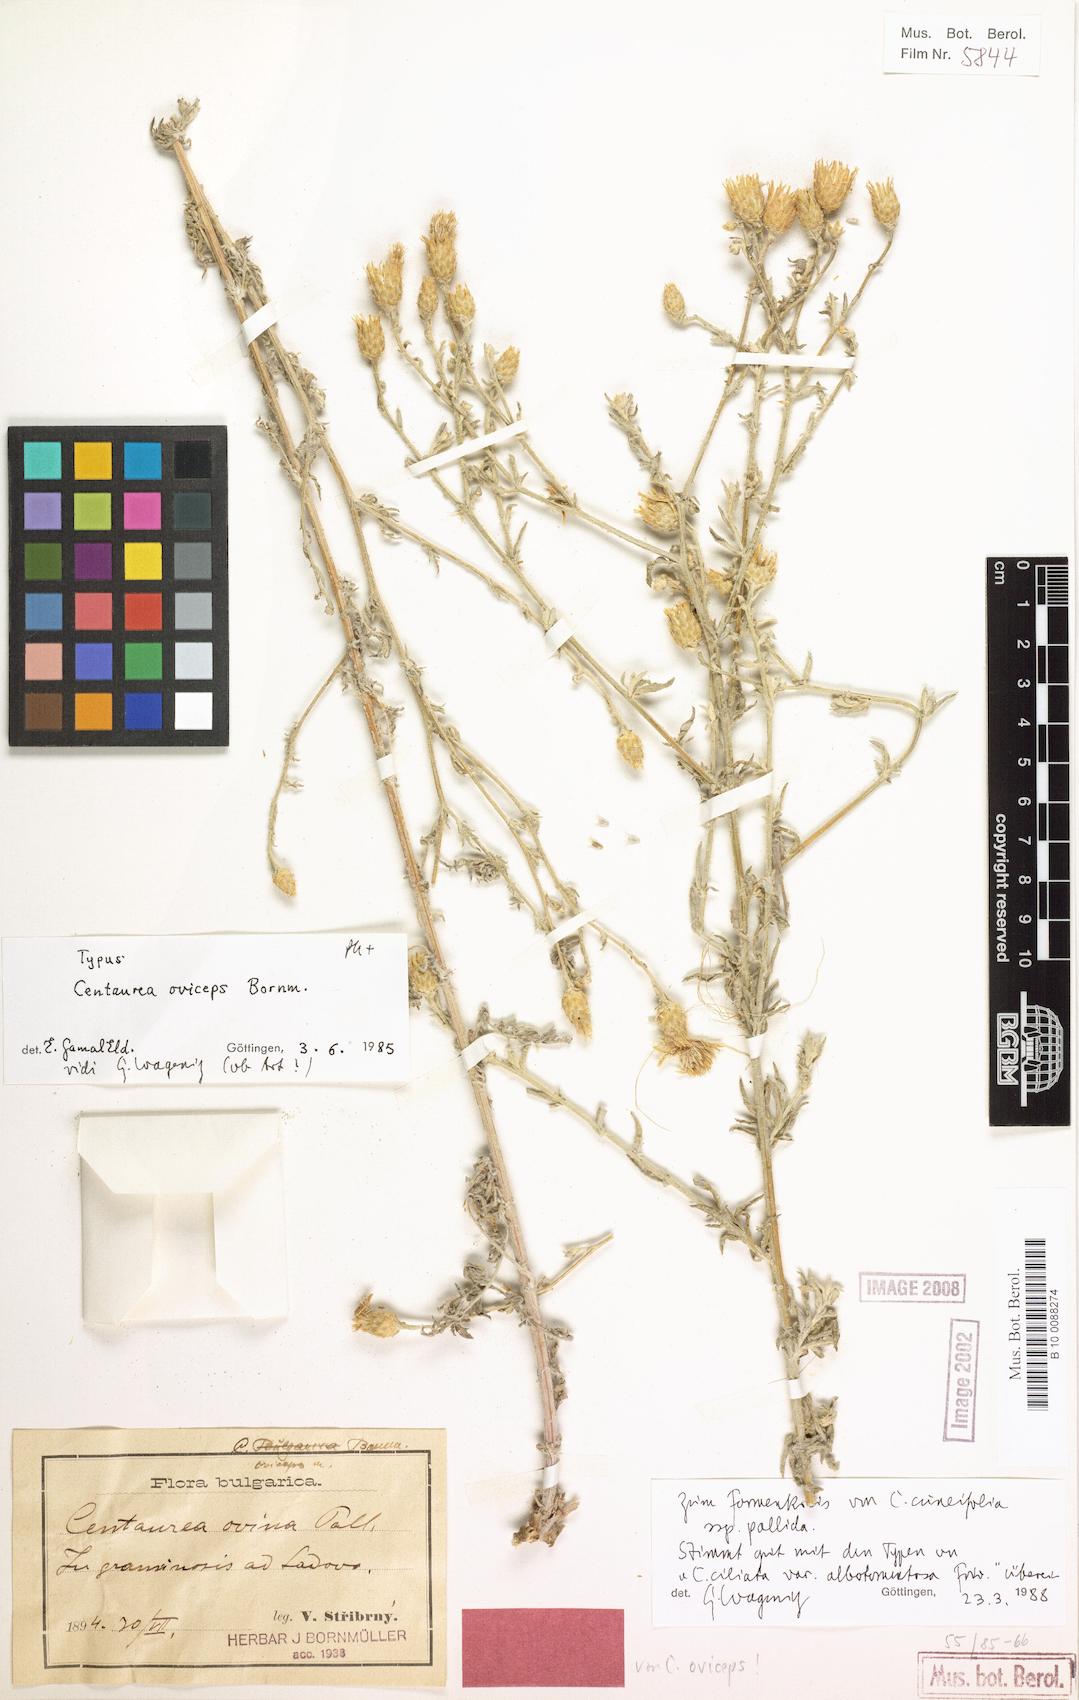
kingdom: Plantae
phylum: Tracheophyta
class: Magnoliopsida
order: Asterales
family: Asteraceae
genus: Centaurea
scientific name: Centaurea cuneifolia
